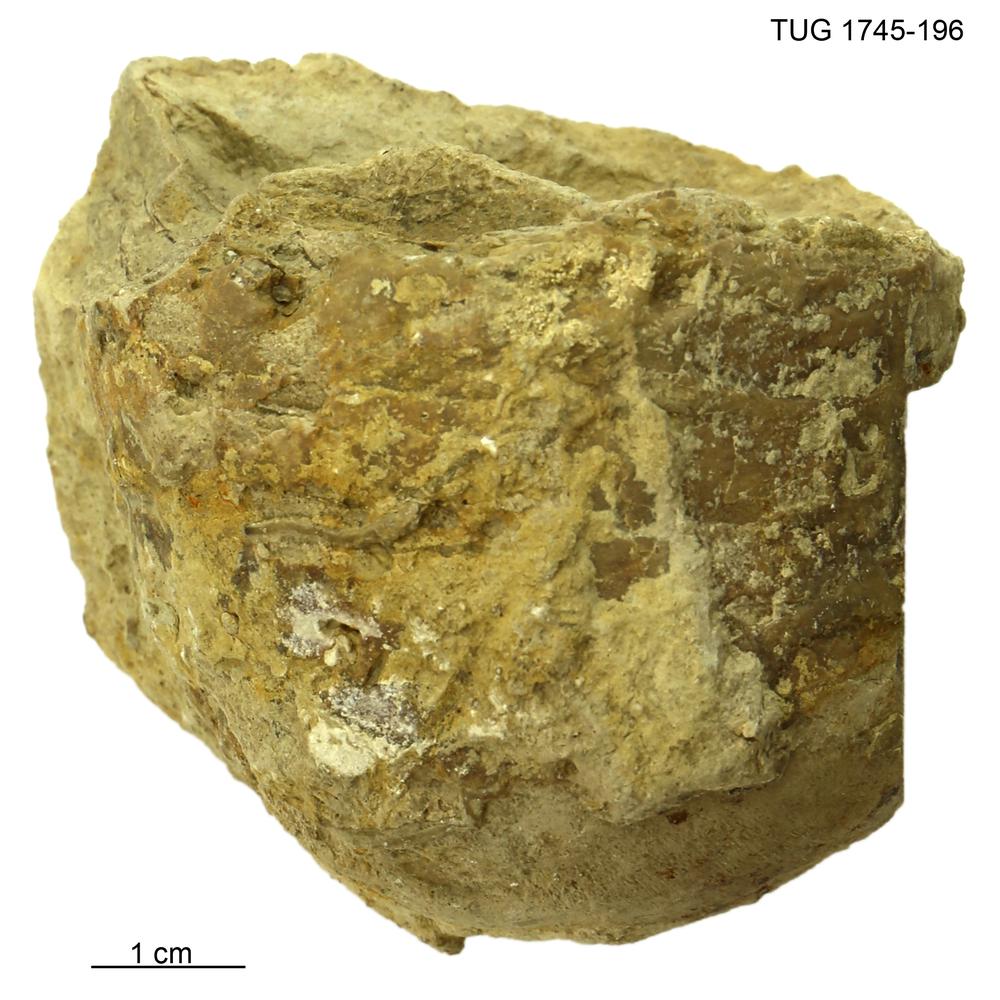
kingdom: Animalia
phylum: Mollusca
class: Cephalopoda
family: Protophragmoceratidae
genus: Protophragmoceras
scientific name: Protophragmoceras sphinx
